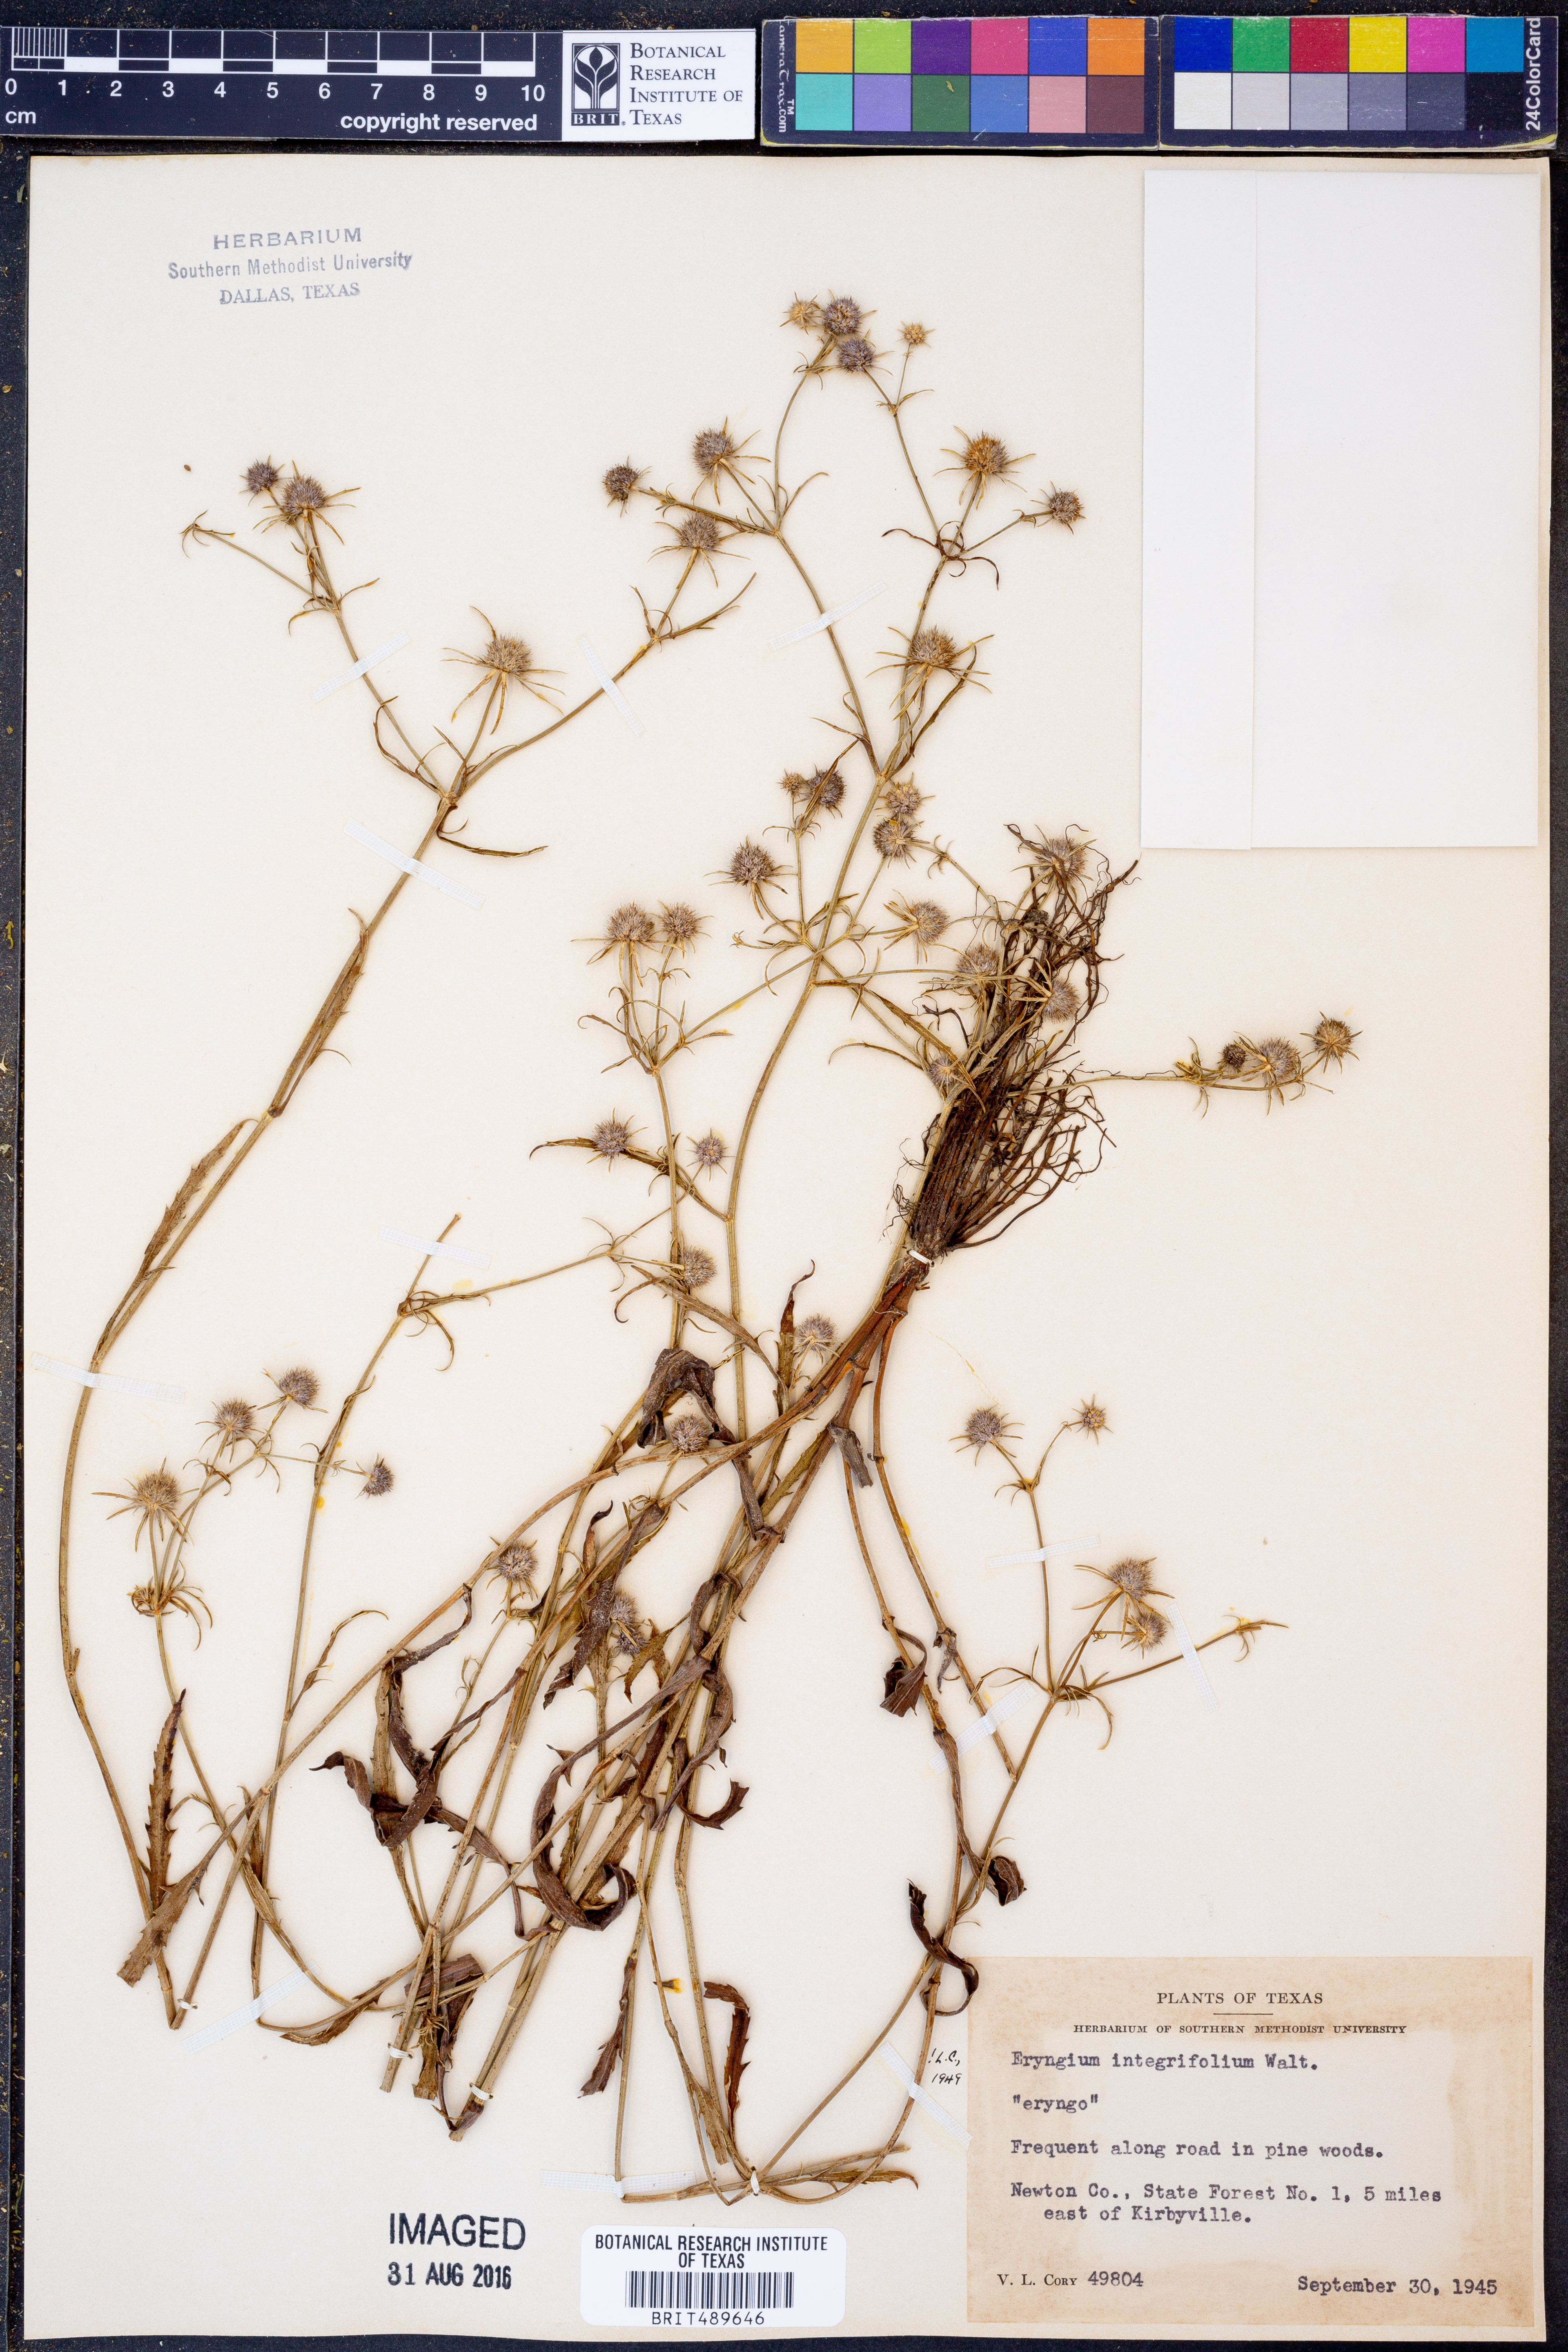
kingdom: Plantae
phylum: Tracheophyta
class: Magnoliopsida
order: Apiales
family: Apiaceae
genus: Eryngium
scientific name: Eryngium integrifolium
